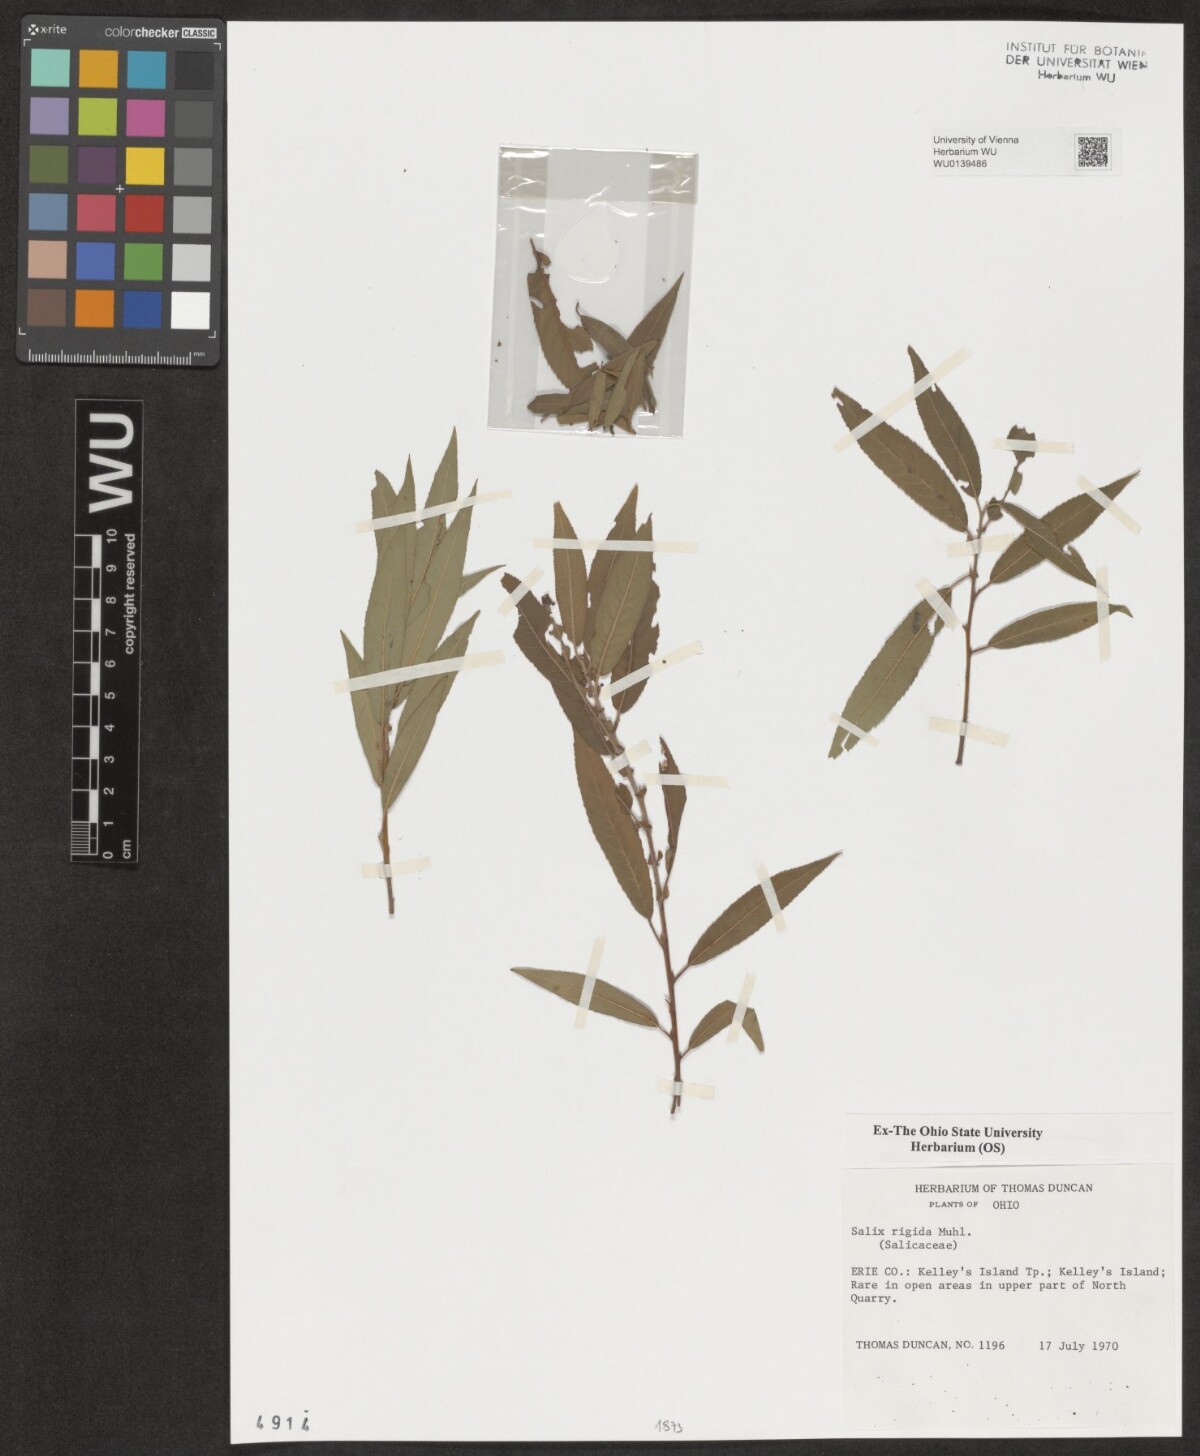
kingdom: Plantae
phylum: Tracheophyta
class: Magnoliopsida
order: Malpighiales
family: Salicaceae
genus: Salix
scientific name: Salix eriocephala
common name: Heart-leaved willow
